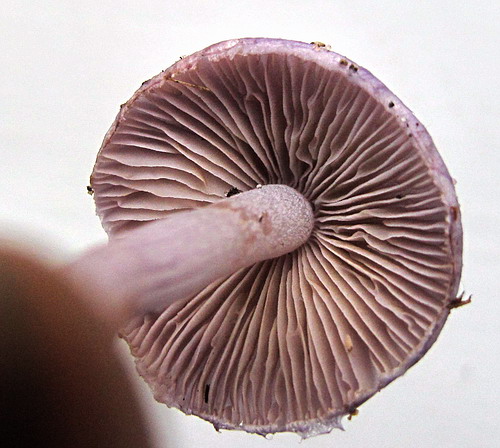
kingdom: Fungi
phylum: Basidiomycota
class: Agaricomycetes
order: Agaricales
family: Inocybaceae
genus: Inocybe
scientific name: Inocybe geophylla
